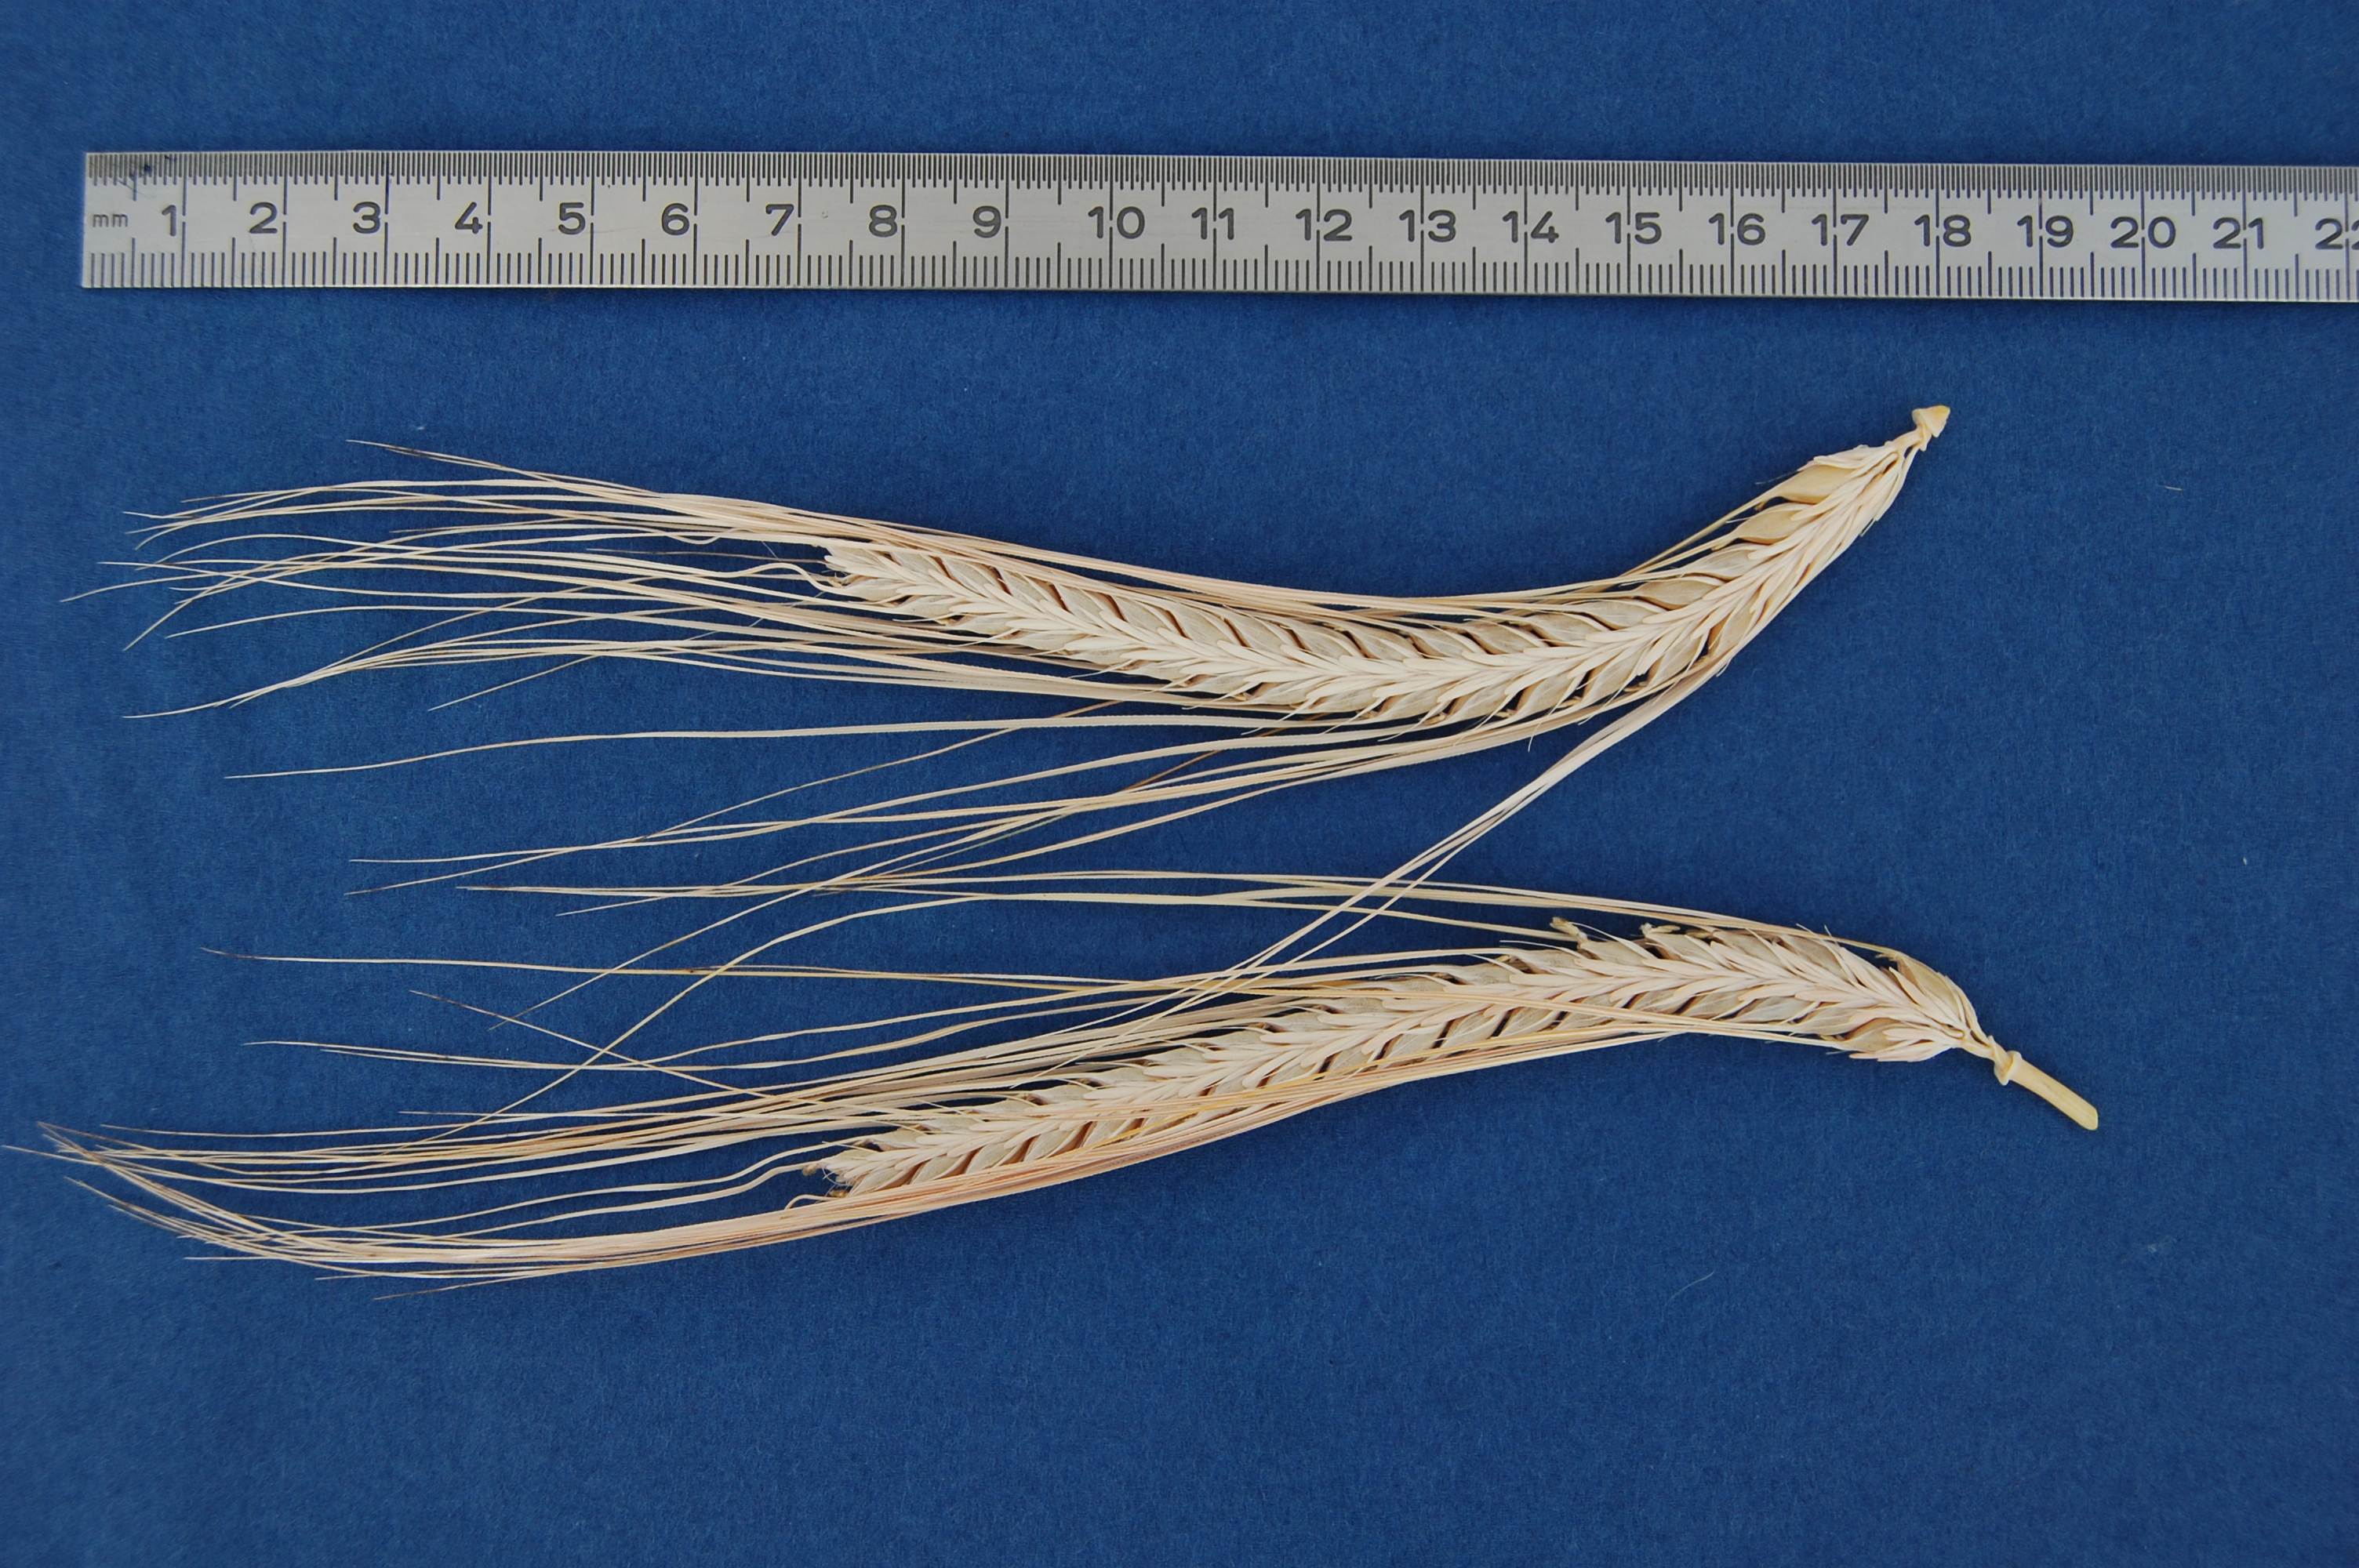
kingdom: Plantae
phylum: Tracheophyta
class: Liliopsida
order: Poales
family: Poaceae
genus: Hordeum
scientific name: Hordeum vulgare
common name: Common barley
